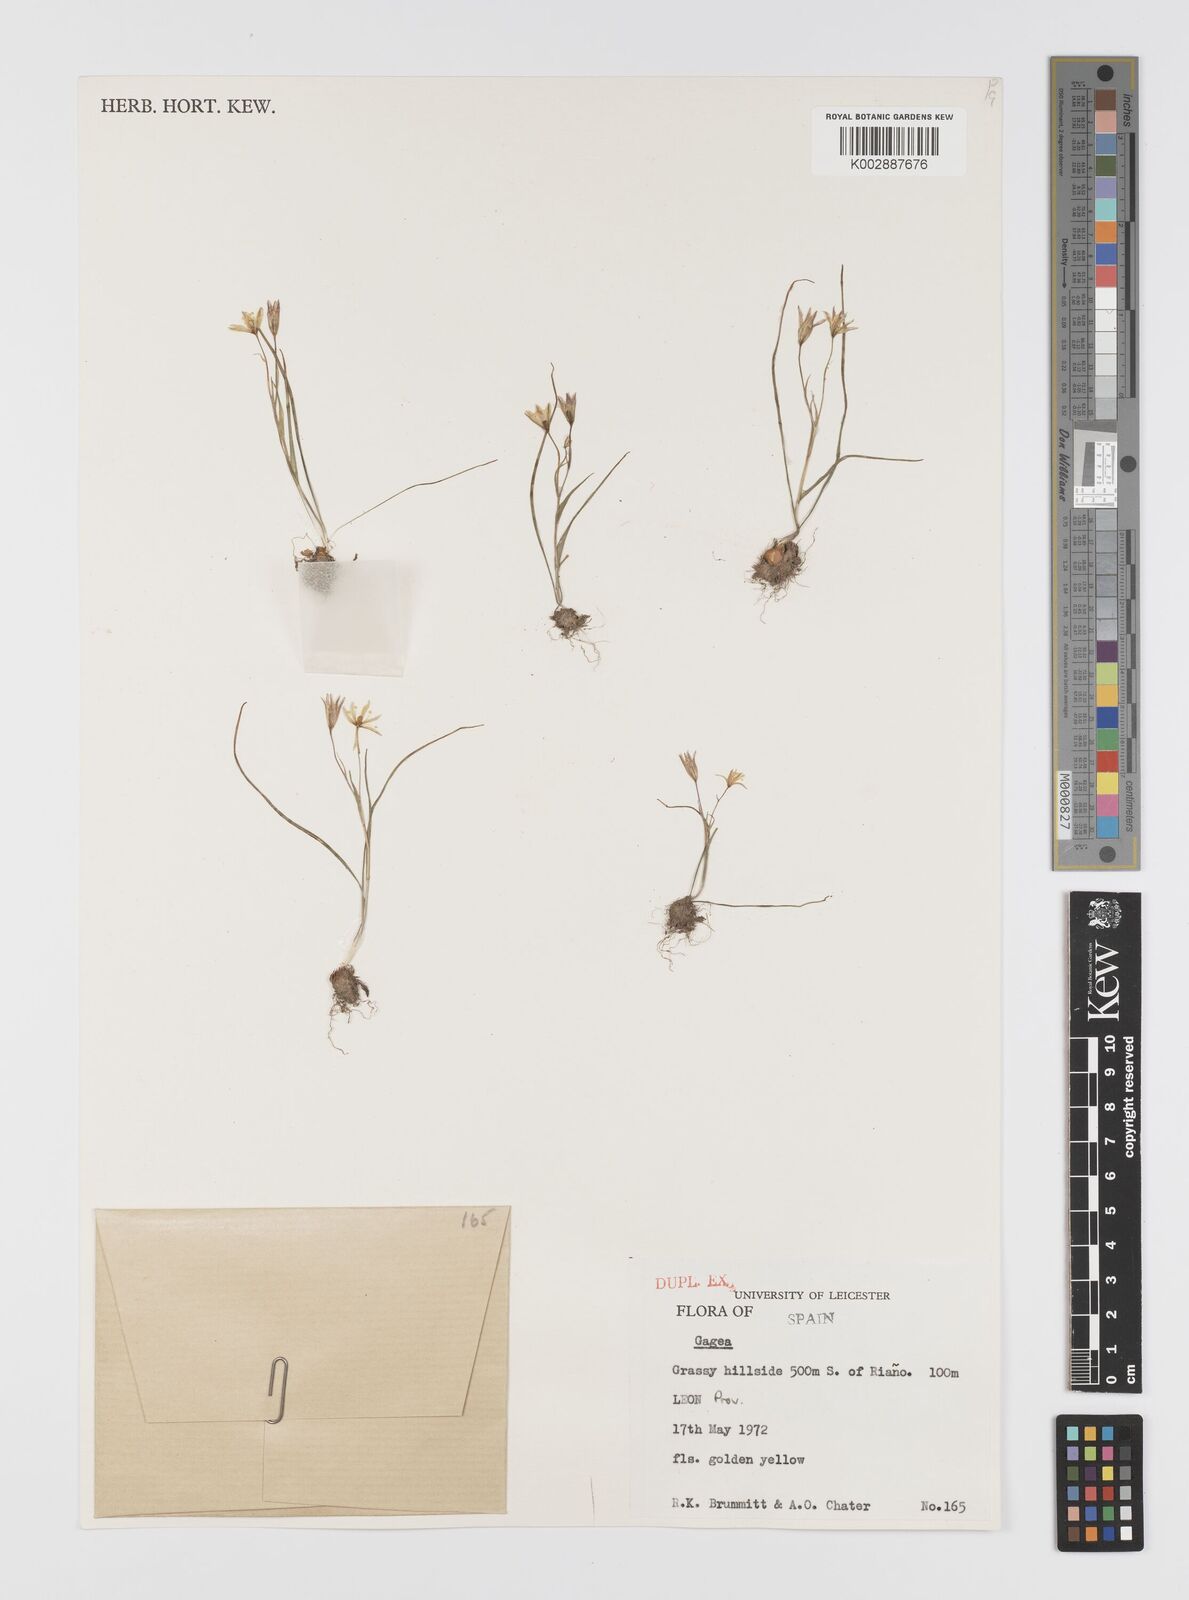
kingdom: Plantae
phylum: Tracheophyta
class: Liliopsida
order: Liliales
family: Liliaceae
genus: Gagea
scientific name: Gagea
